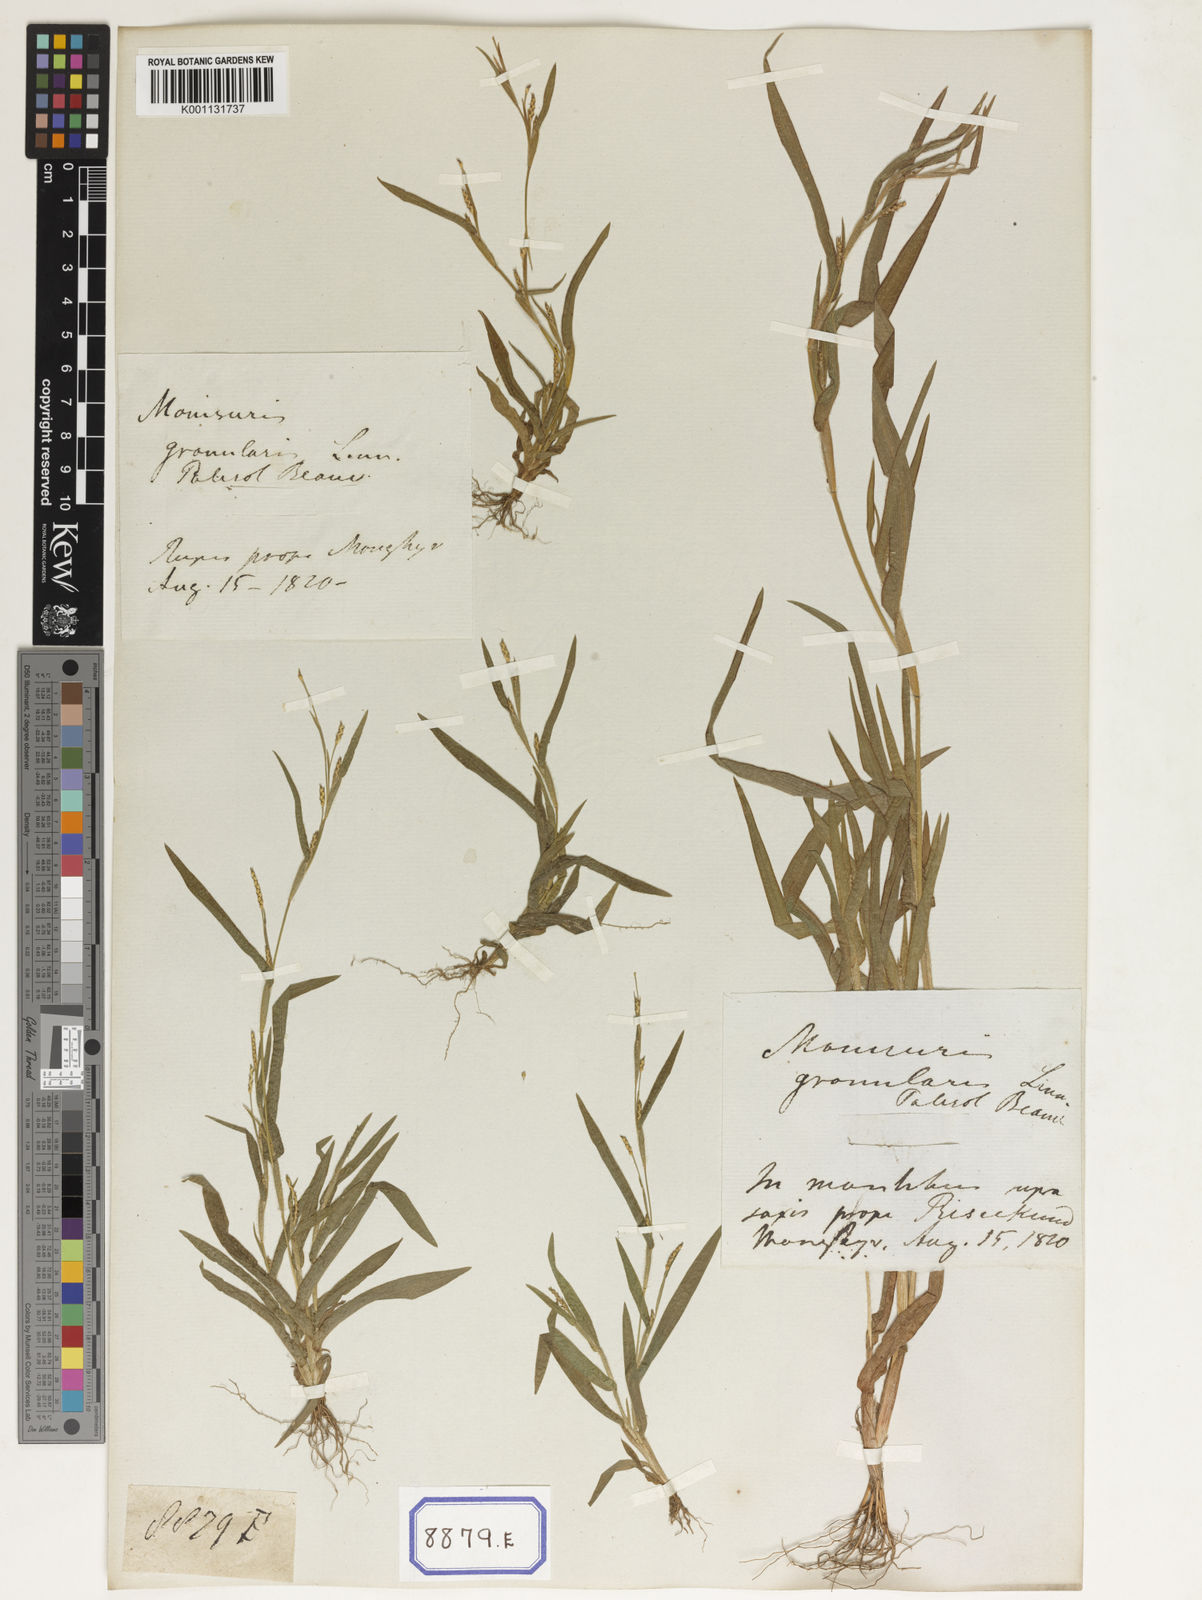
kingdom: Plantae
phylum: Tracheophyta
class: Liliopsida
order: Poales
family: Poaceae
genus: Manisuris
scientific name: Manisuris
